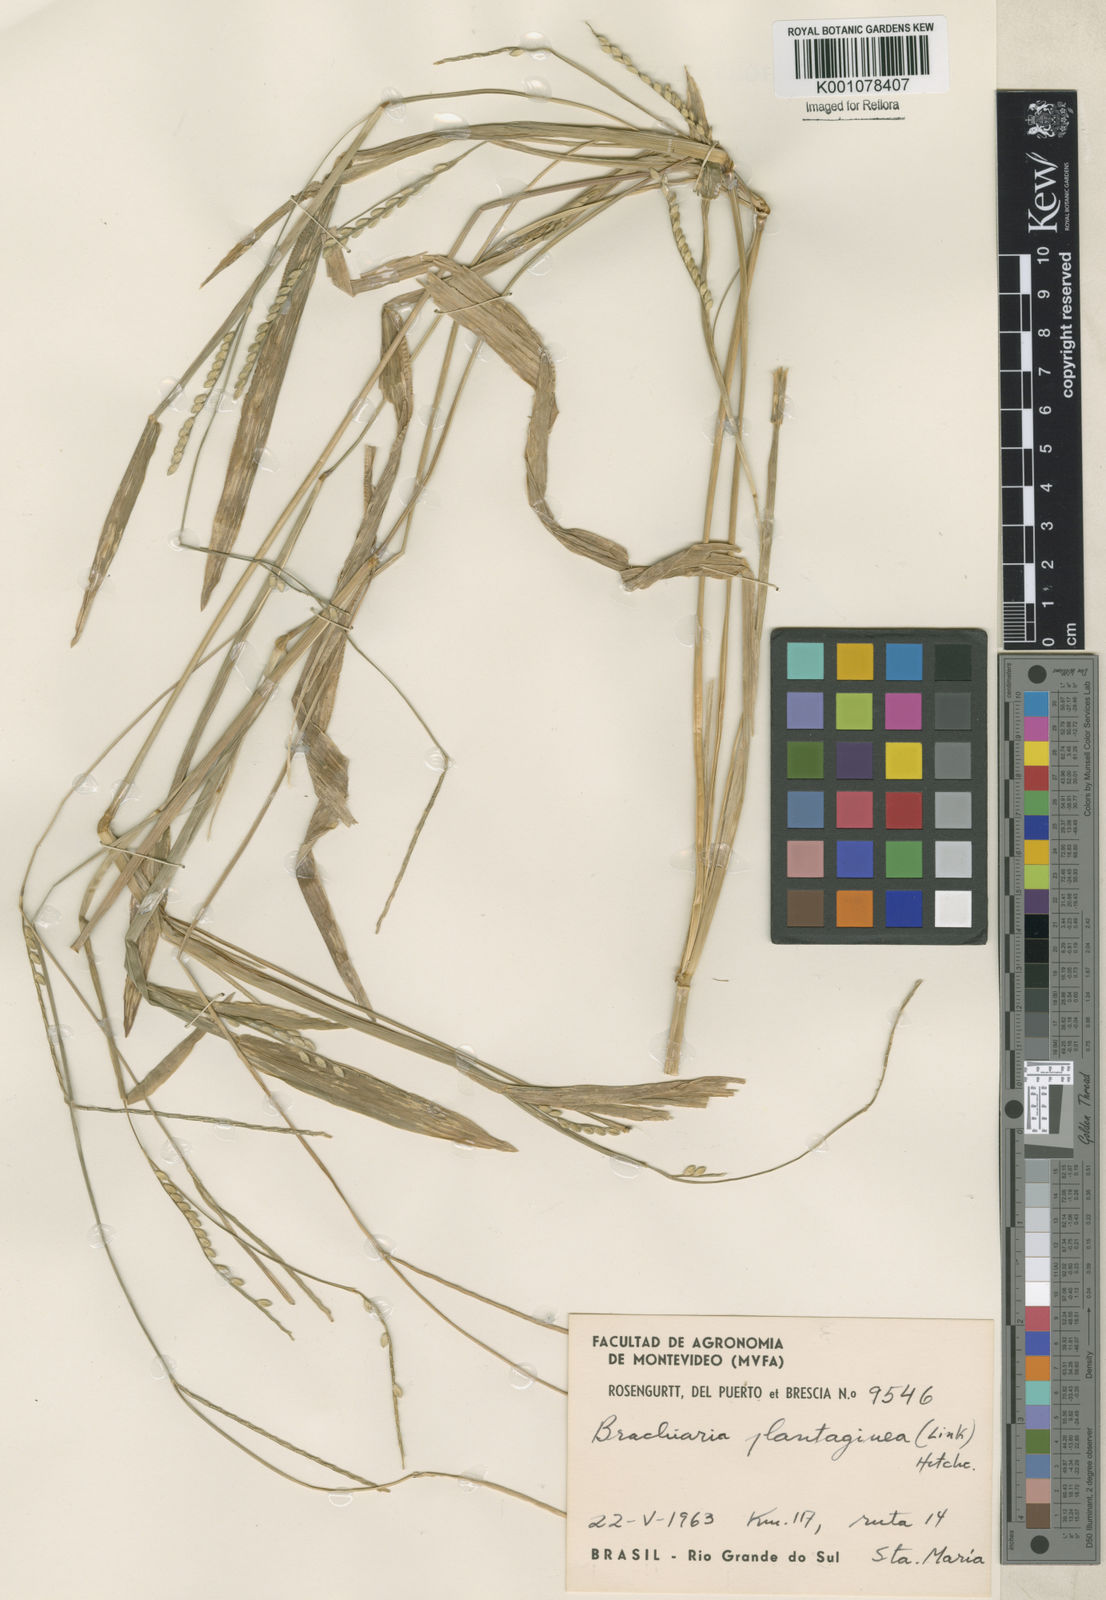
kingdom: Plantae
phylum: Tracheophyta
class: Liliopsida
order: Poales
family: Poaceae
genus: Urochloa
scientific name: Urochloa plantaginea
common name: Plantain signalgrass
